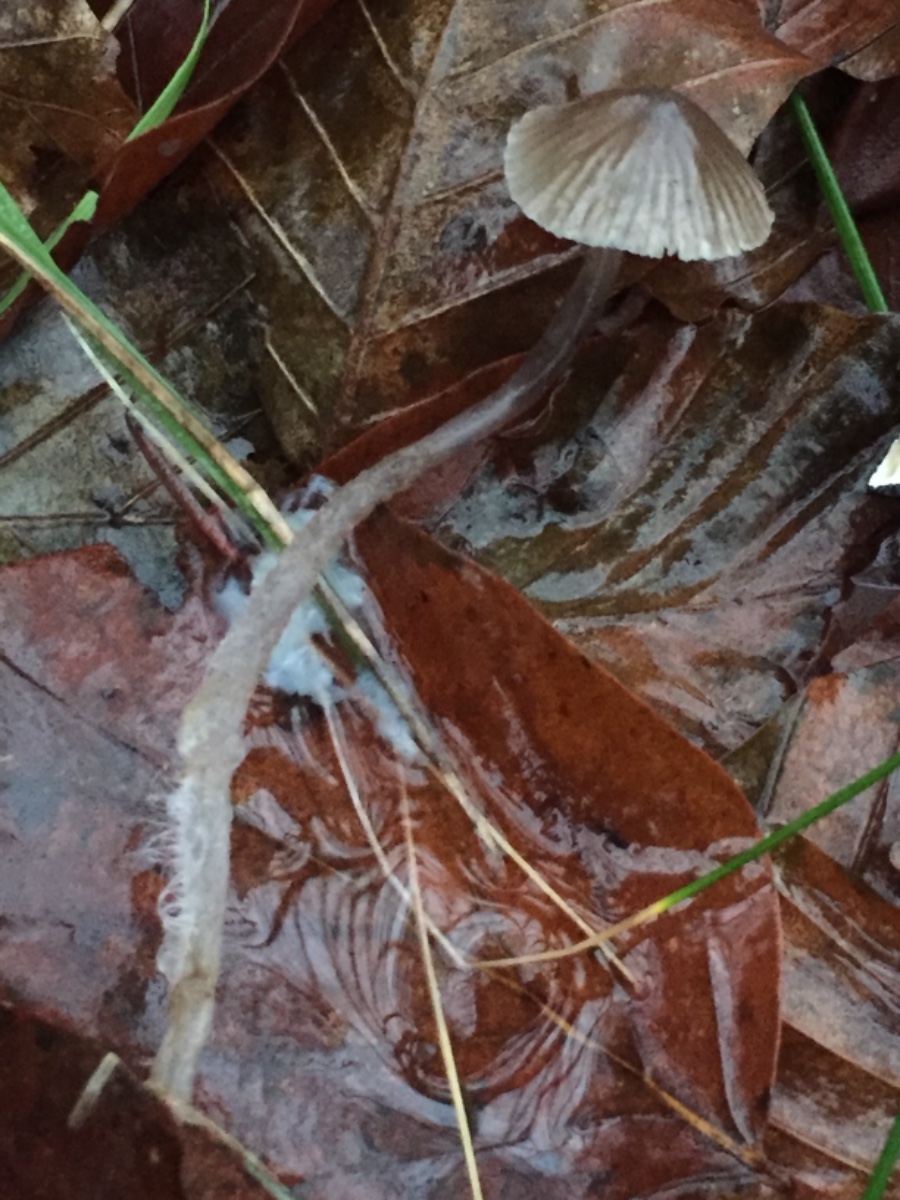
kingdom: Fungi
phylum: Basidiomycota
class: Agaricomycetes
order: Agaricales
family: Mycenaceae
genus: Mycena
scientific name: Mycena leptocephala
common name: klor-huesvamp
